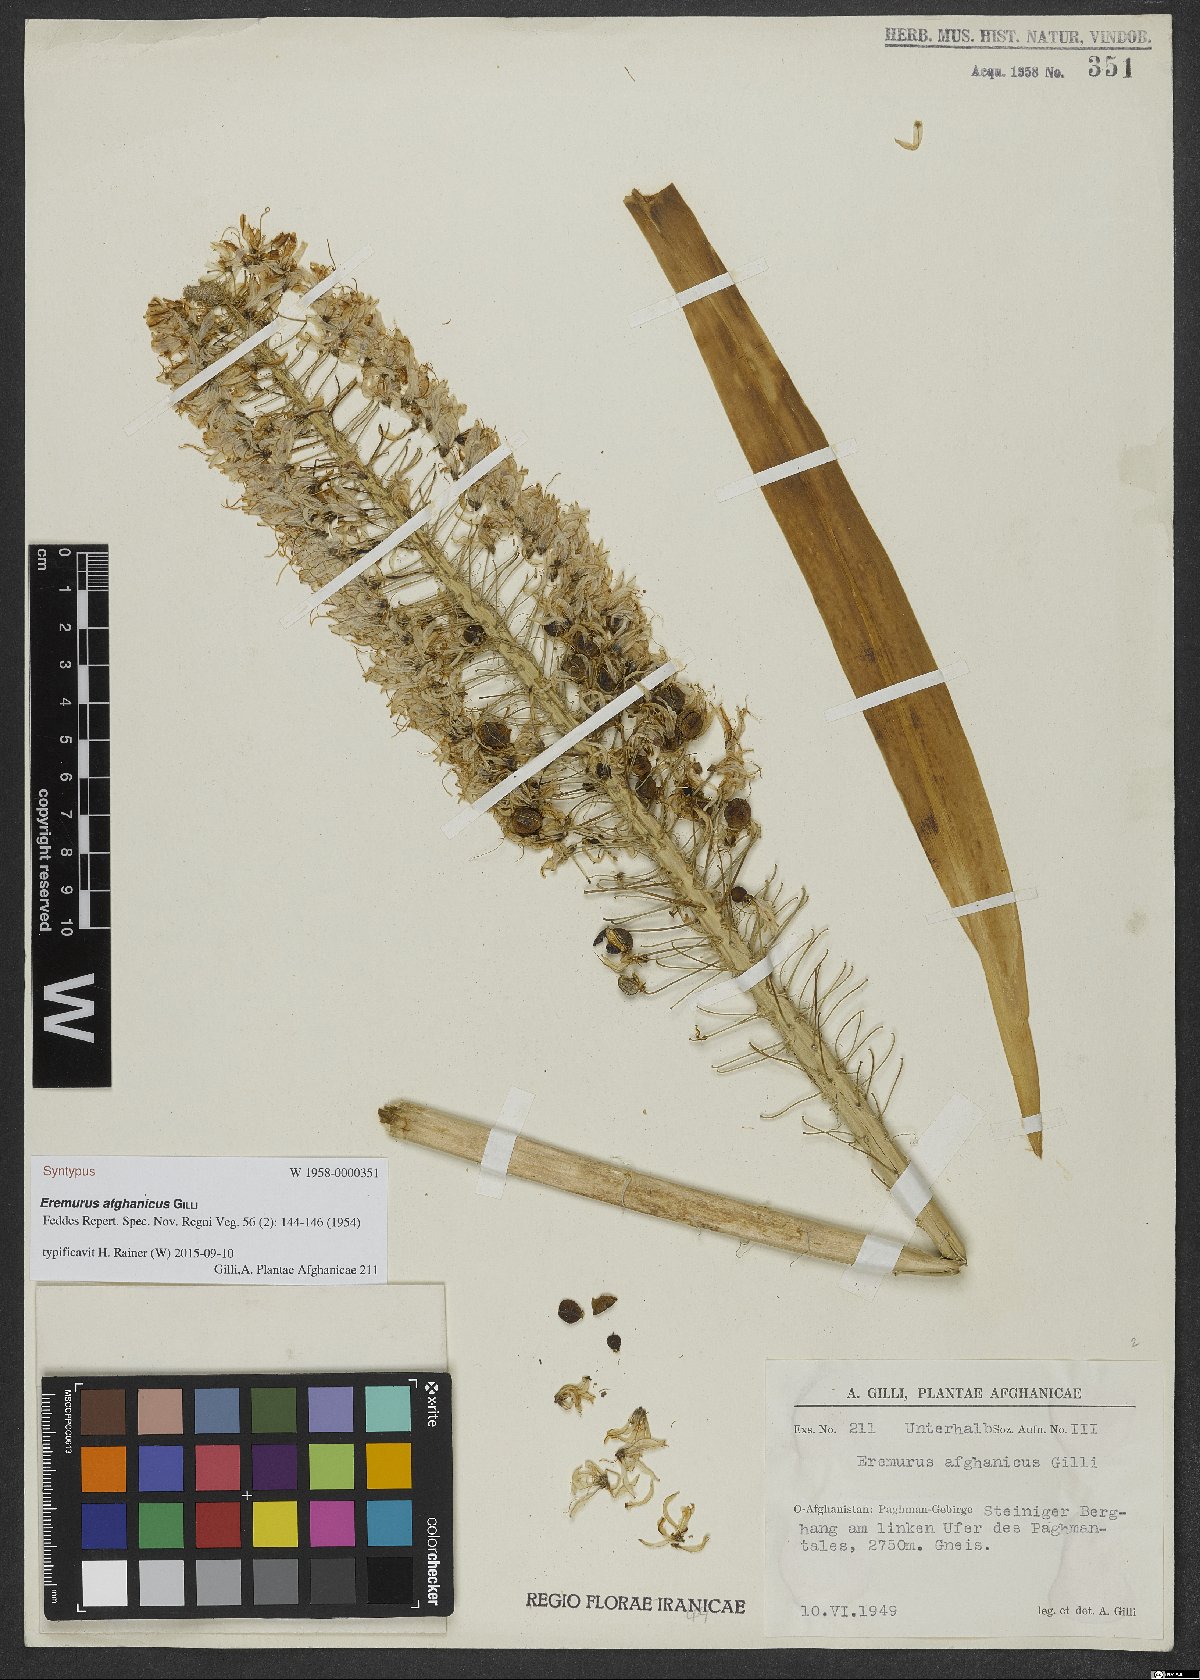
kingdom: Plantae
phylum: Tracheophyta
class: Liliopsida
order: Asparagales
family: Asphodelaceae
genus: Eremurus
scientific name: Eremurus afghanicus
